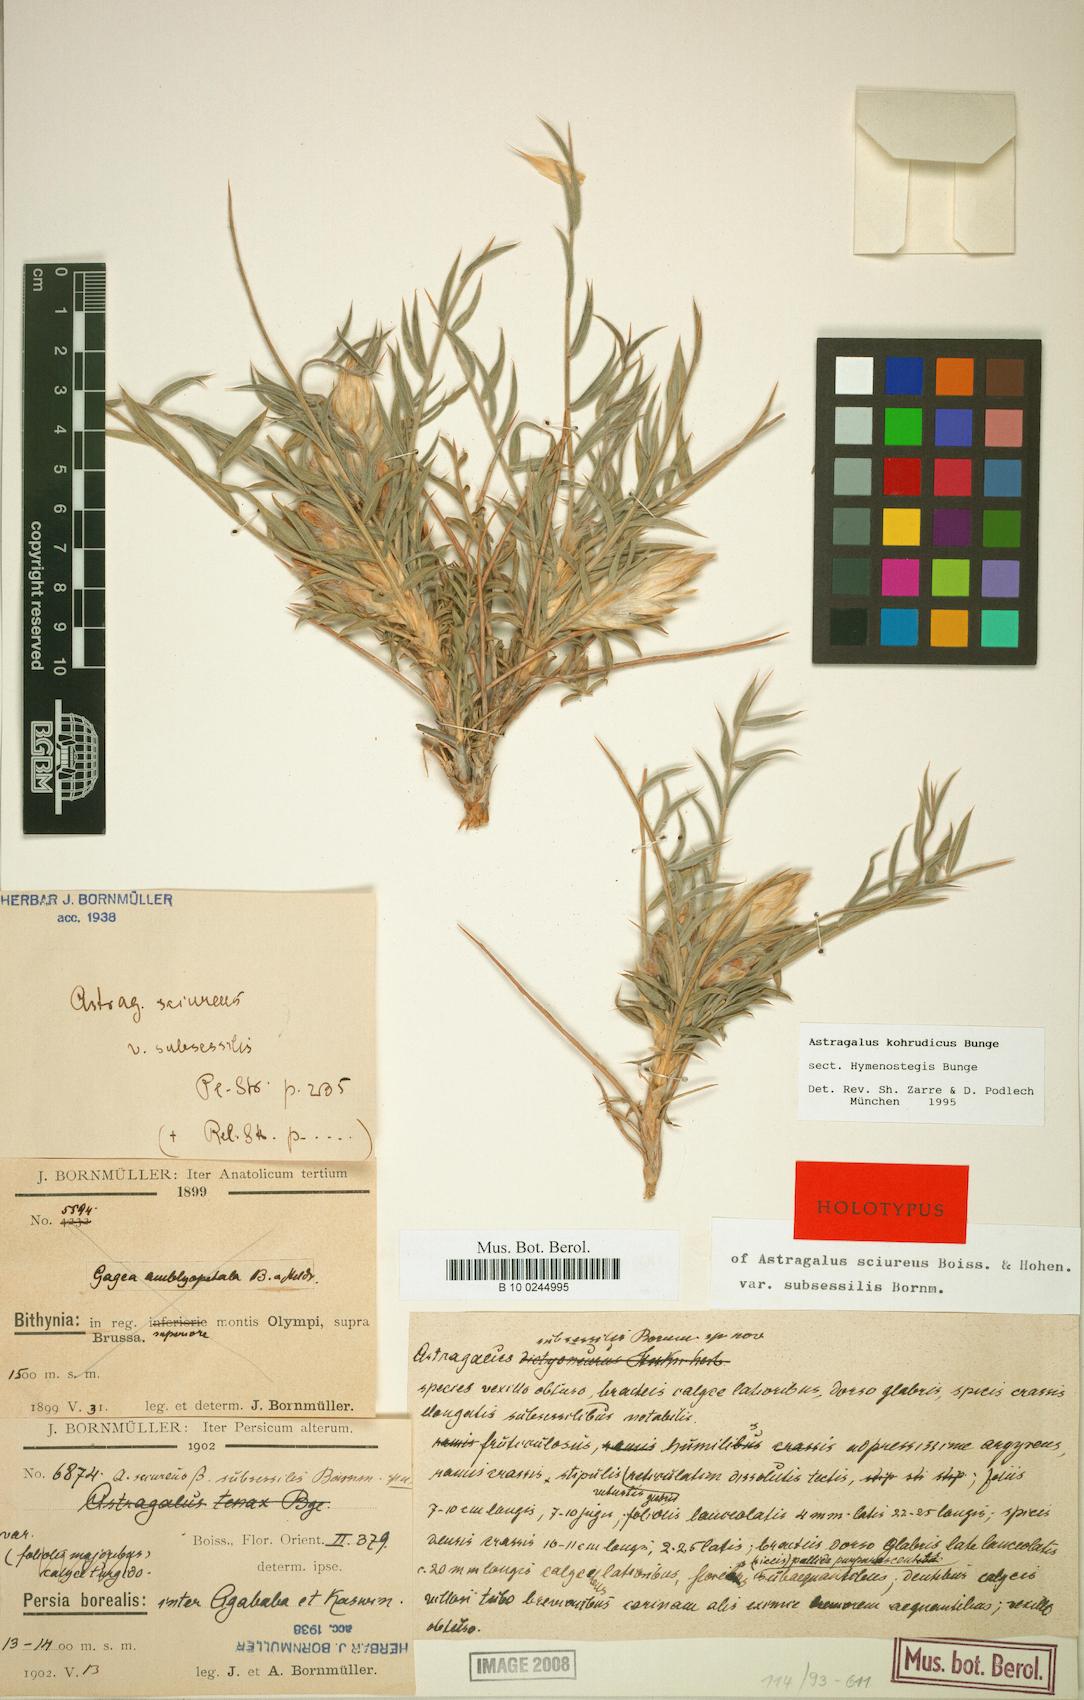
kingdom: Plantae
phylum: Tracheophyta
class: Magnoliopsida
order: Fabales
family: Fabaceae
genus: Astragalus
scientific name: Astragalus kohrudicus
